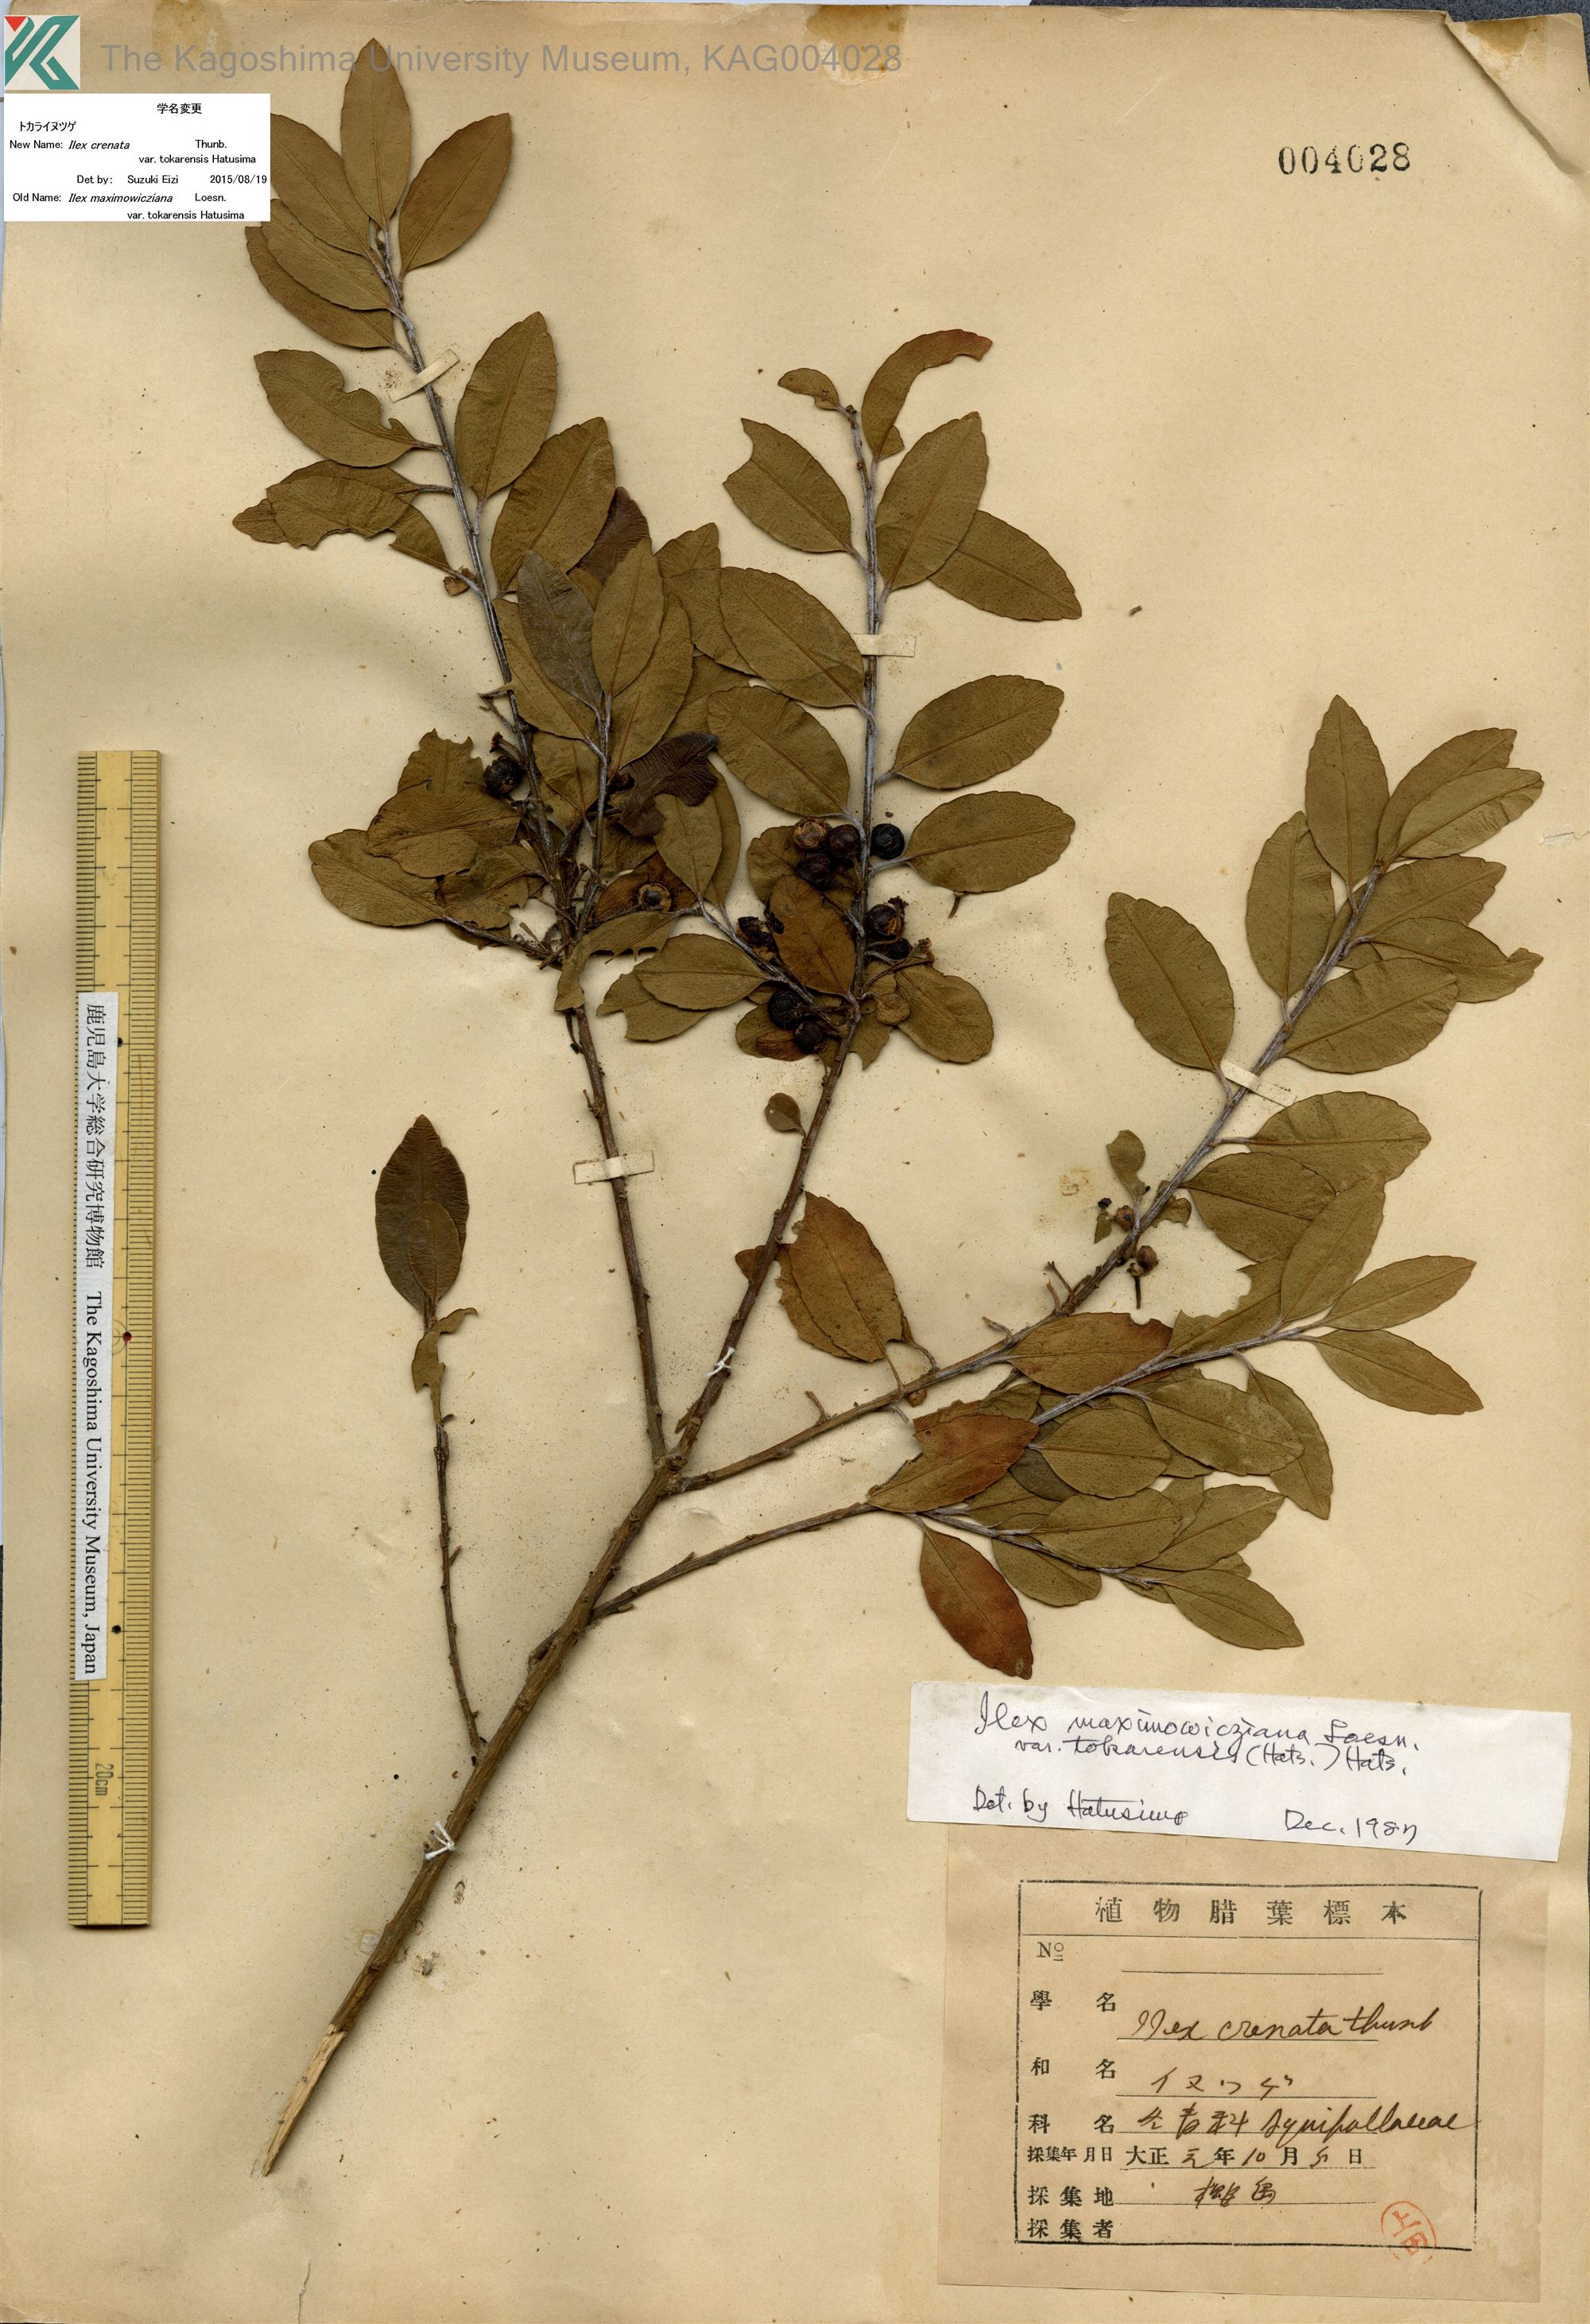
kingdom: Plantae
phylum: Tracheophyta
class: Magnoliopsida
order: Aquifoliales
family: Aquifoliaceae
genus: Ilex
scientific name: Ilex crenata
